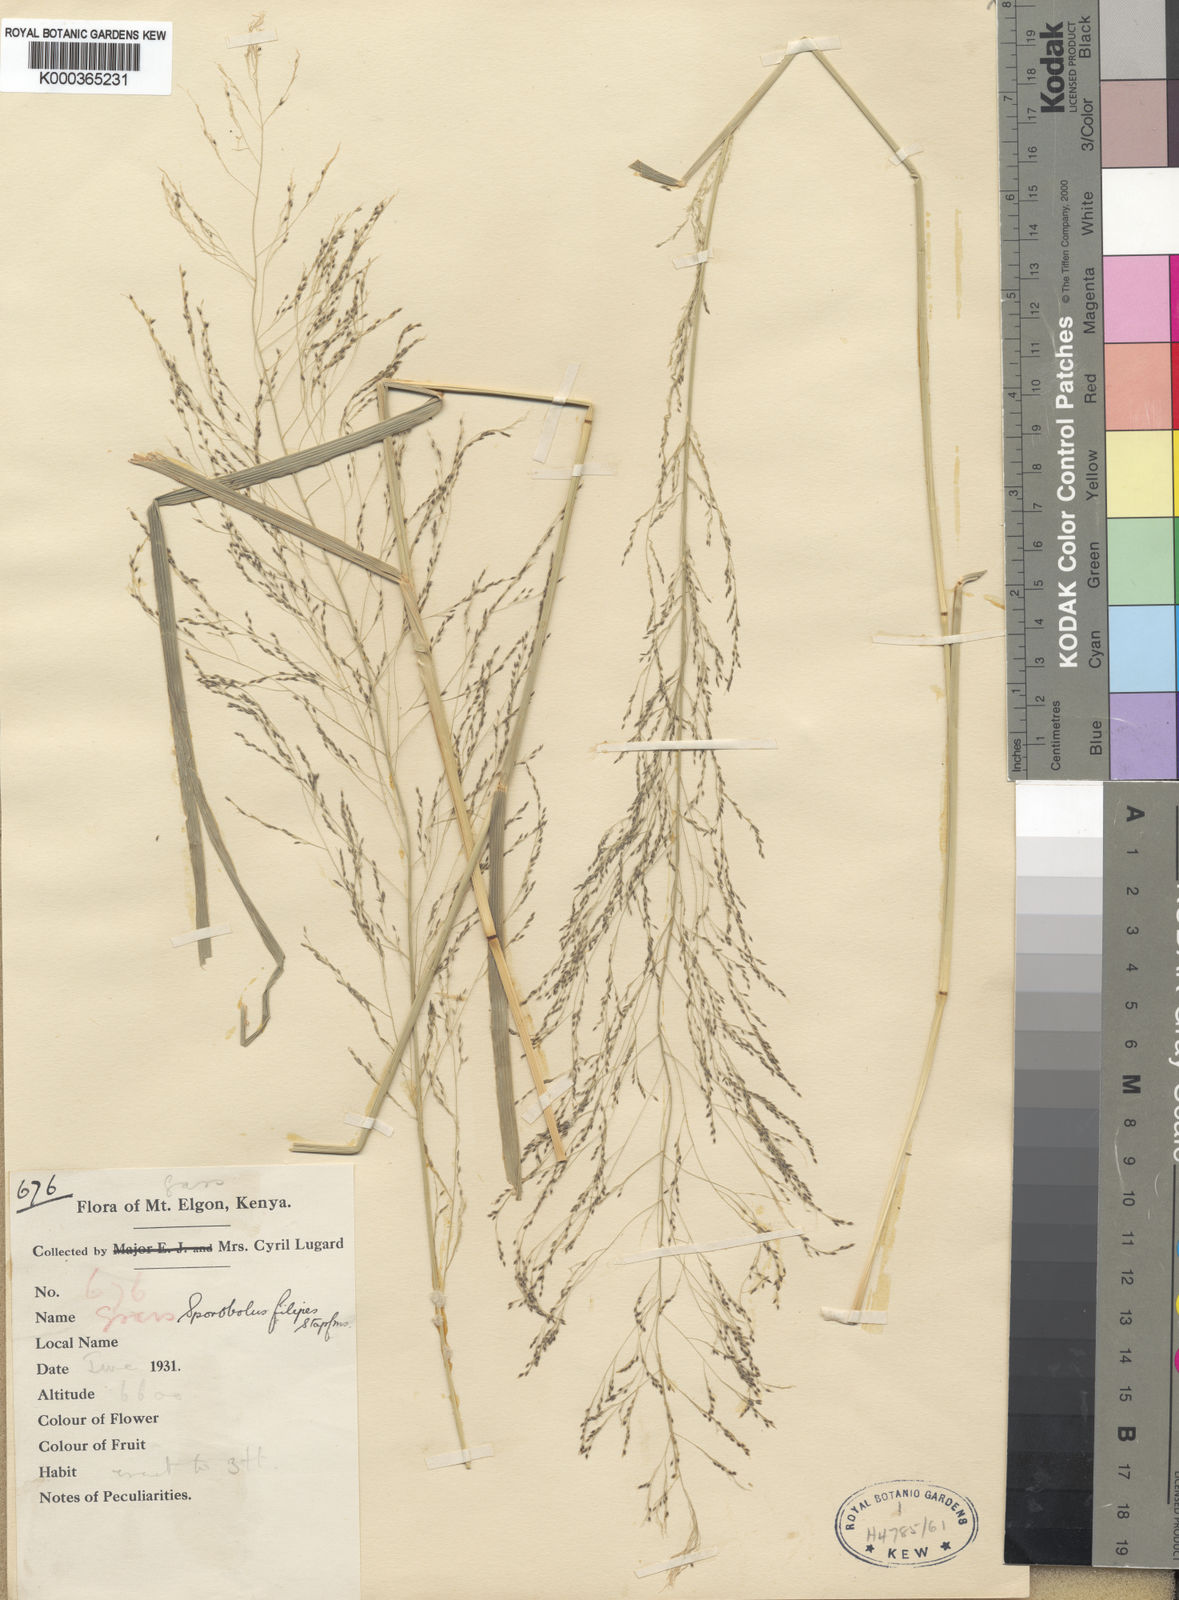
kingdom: Plantae
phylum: Tracheophyta
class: Liliopsida
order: Poales
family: Poaceae
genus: Sporobolus
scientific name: Sporobolus agrostoides
